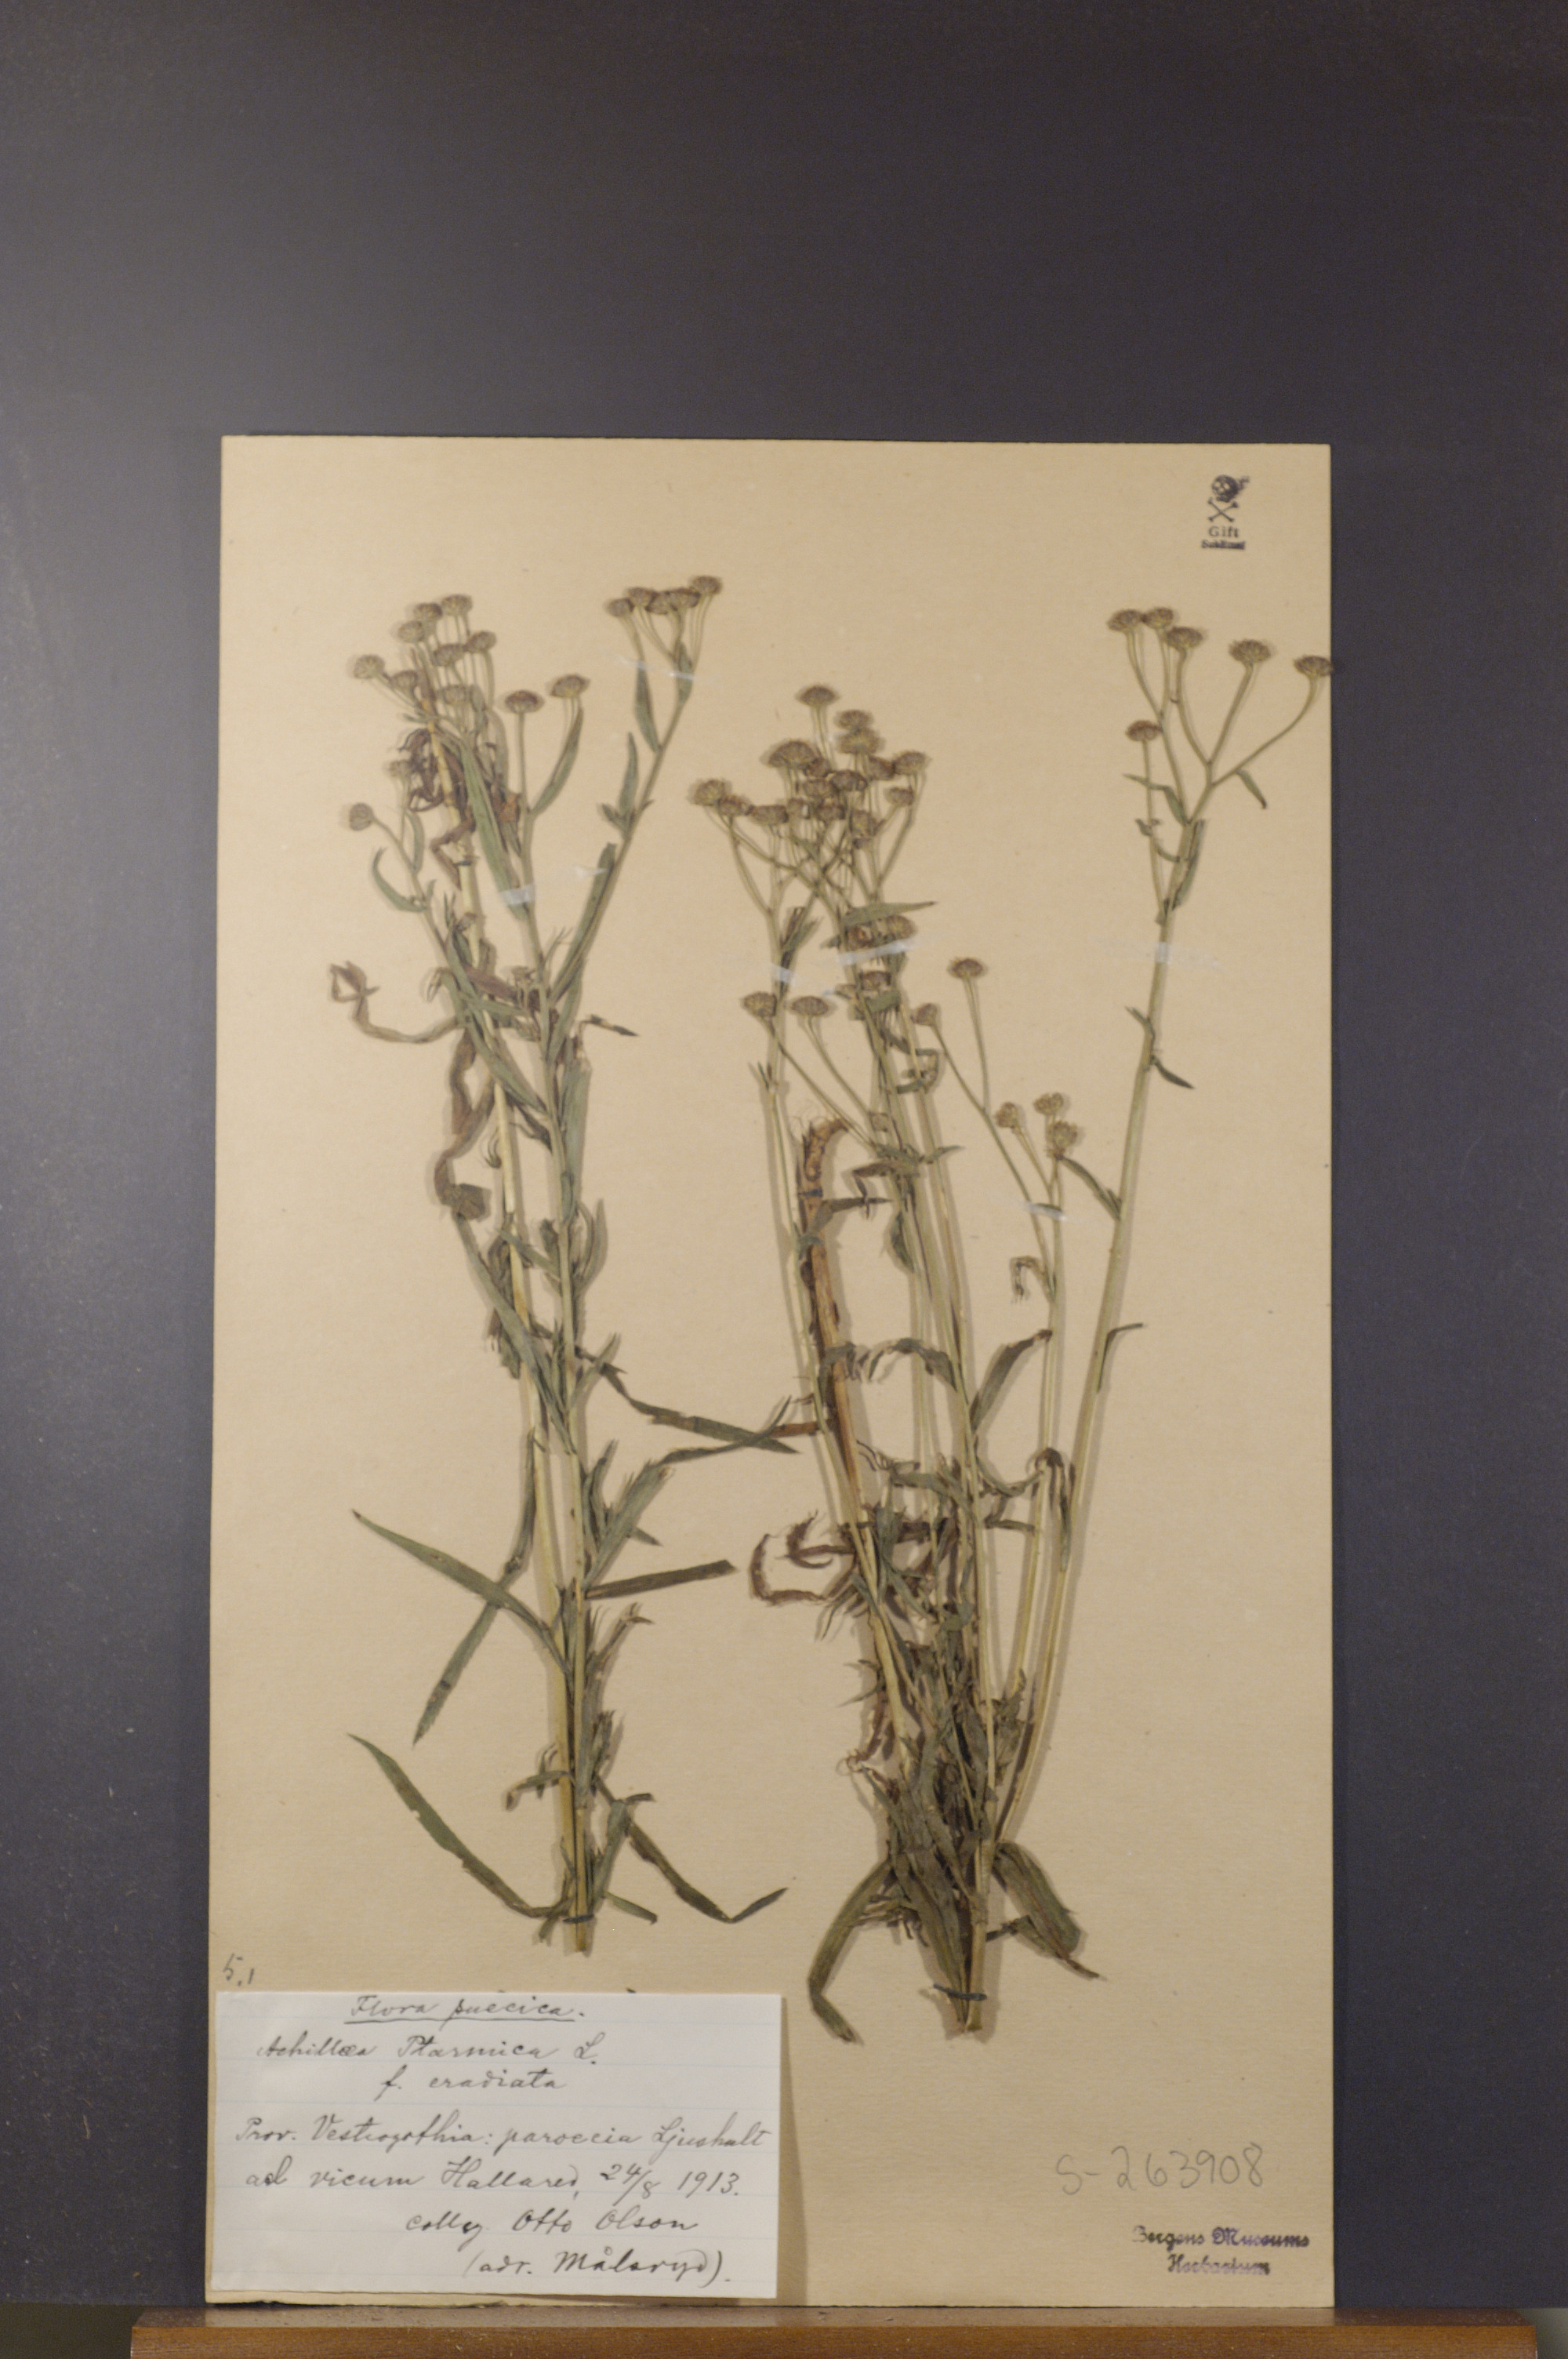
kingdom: Plantae
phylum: Tracheophyta
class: Magnoliopsida
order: Asterales
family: Asteraceae
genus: Achillea
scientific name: Achillea ptarmica
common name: Sneezeweed
